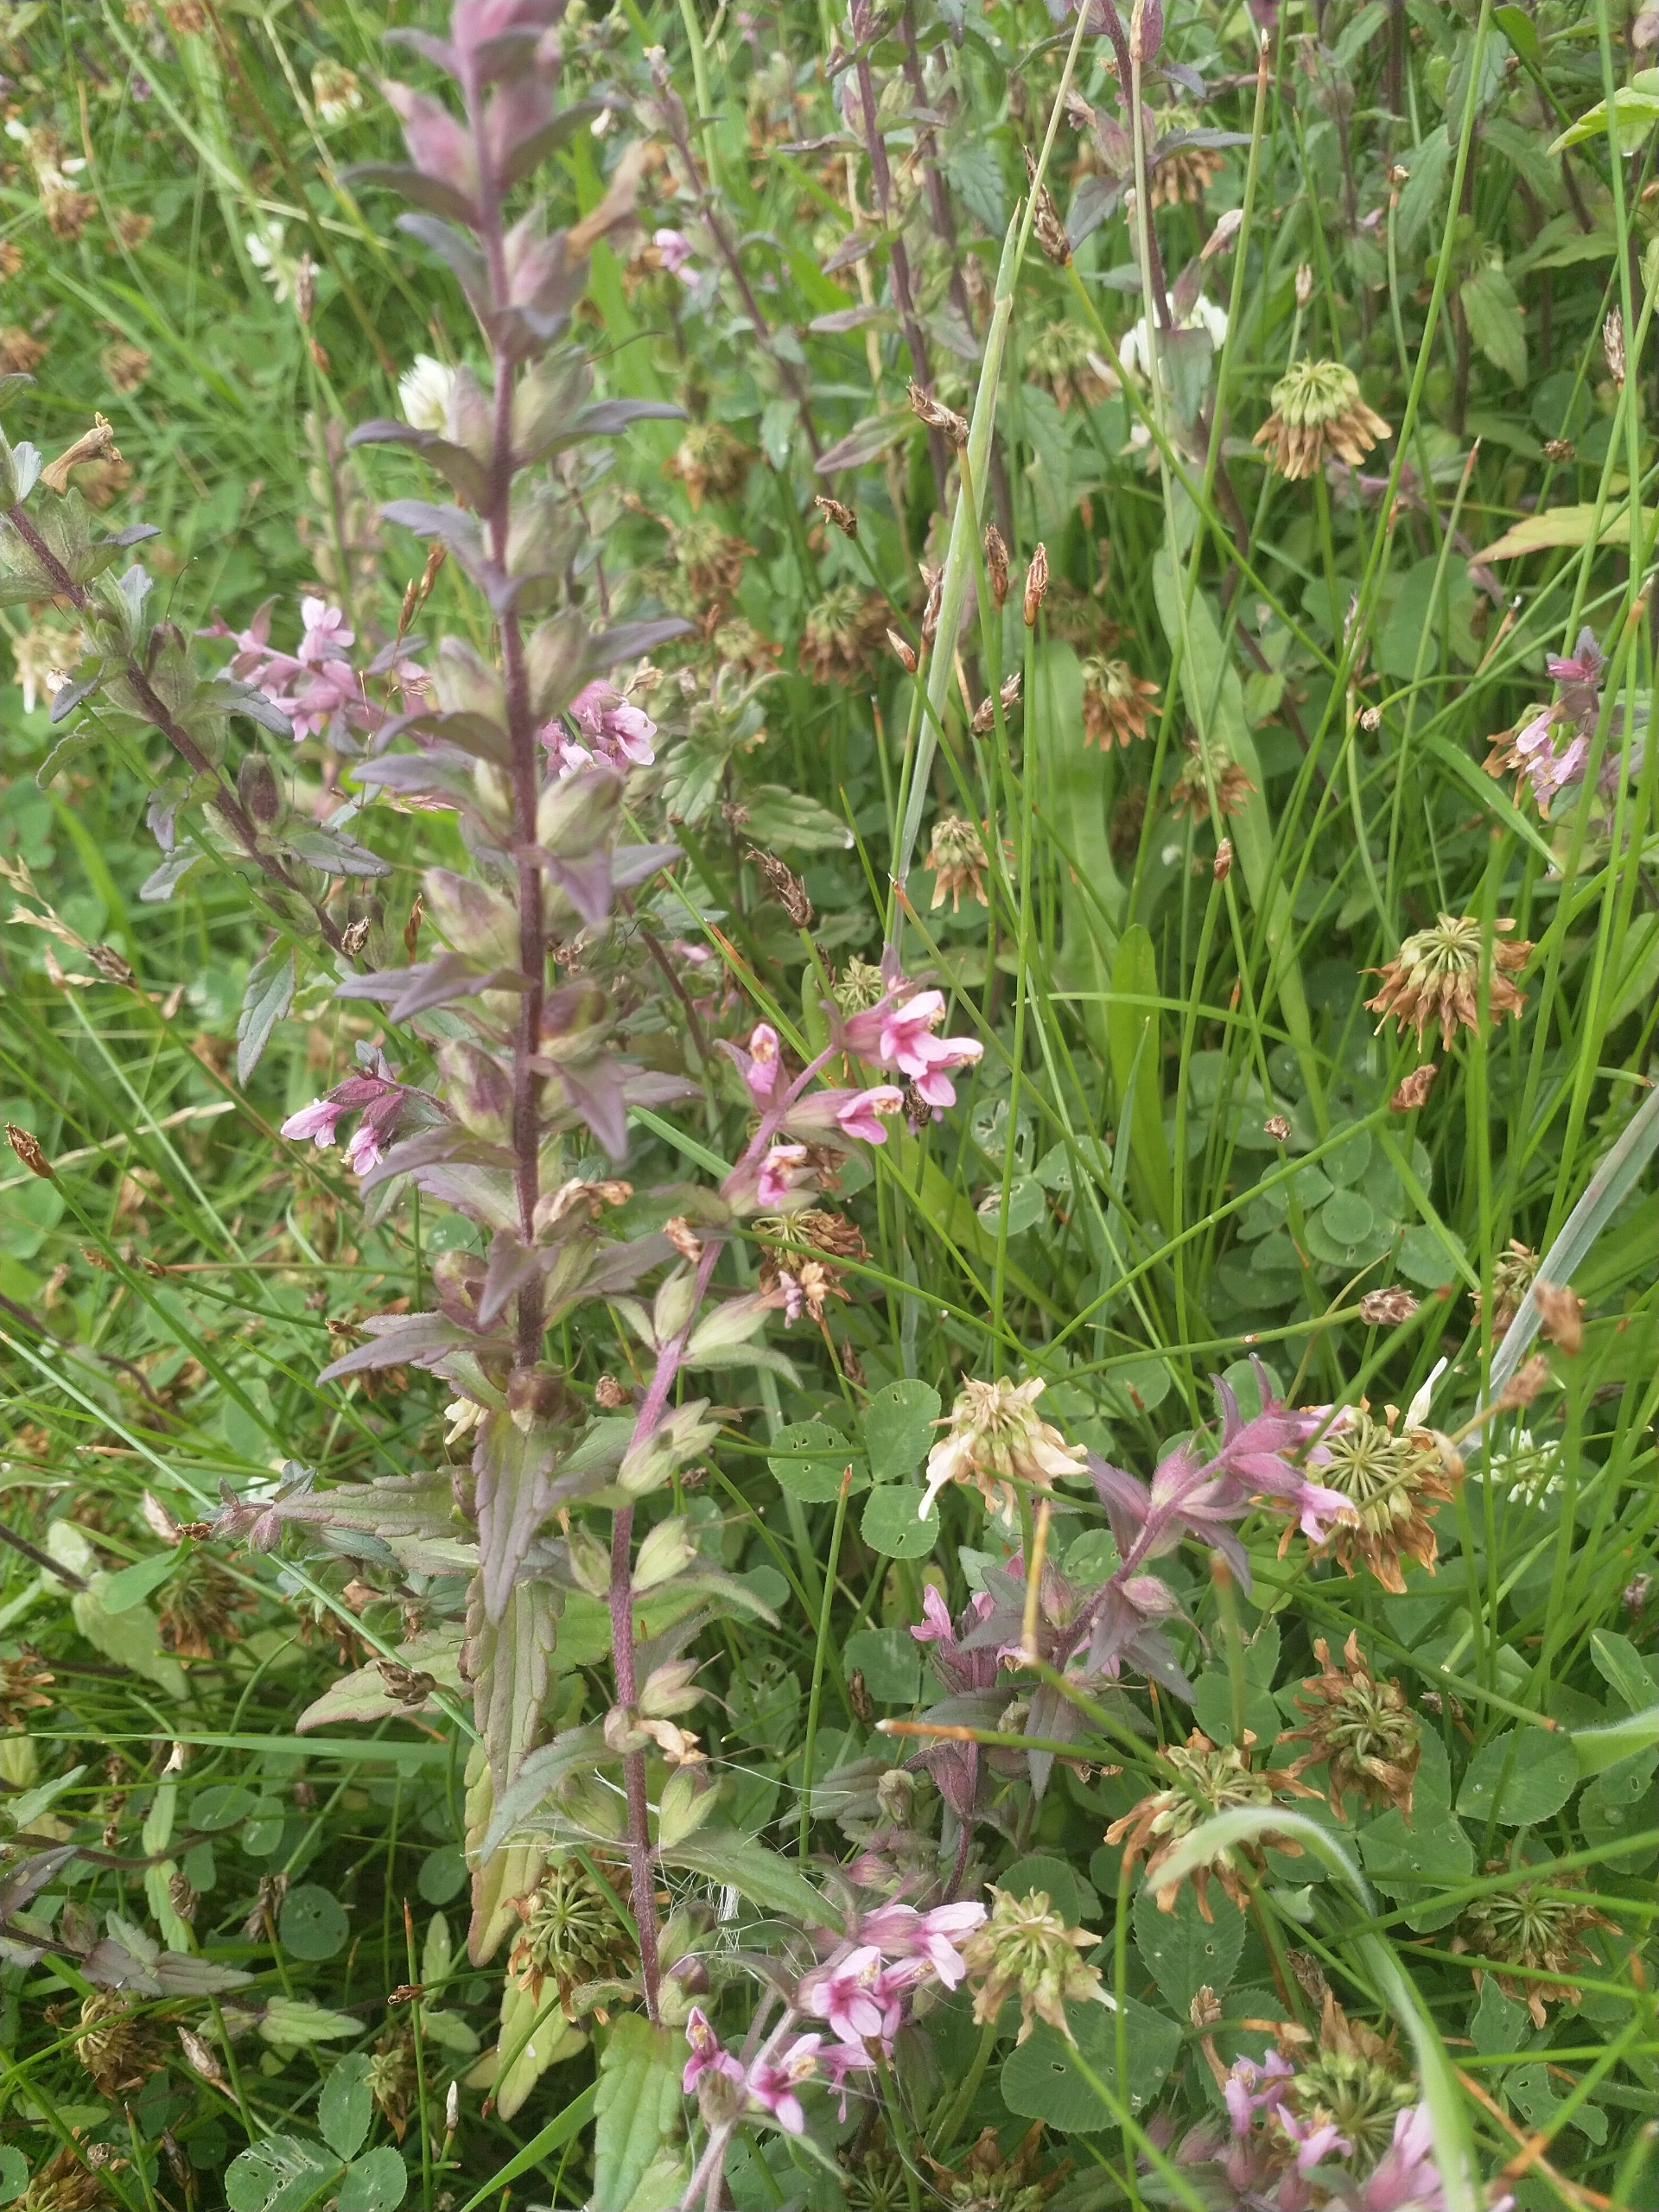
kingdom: Plantae
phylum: Tracheophyta
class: Magnoliopsida
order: Lamiales
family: Orobanchaceae
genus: Odontites
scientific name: Odontites litoralis
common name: Strand-rødtop
